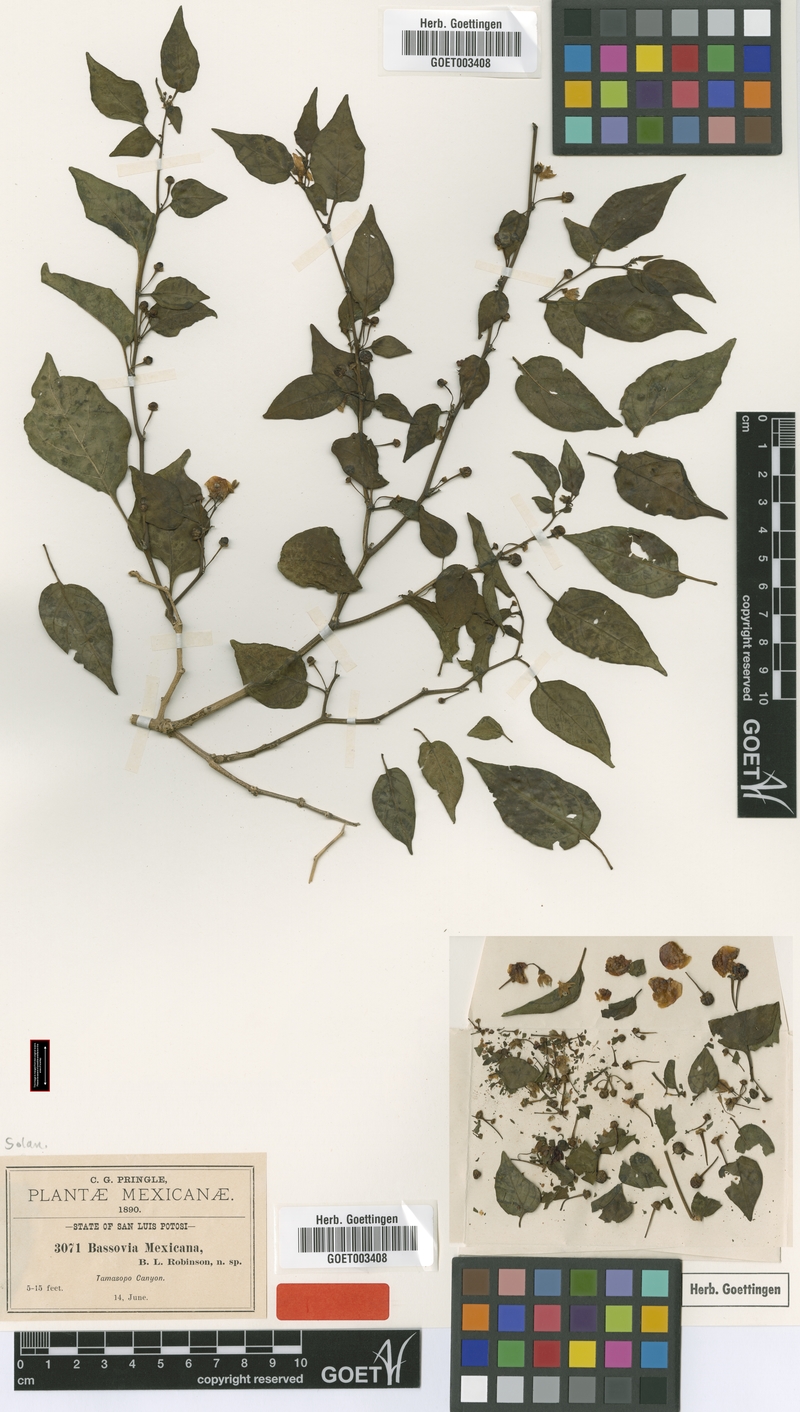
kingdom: Plantae
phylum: Tracheophyta
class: Magnoliopsida
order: Solanales
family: Solanaceae
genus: Witheringia
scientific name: Witheringia mexicana
